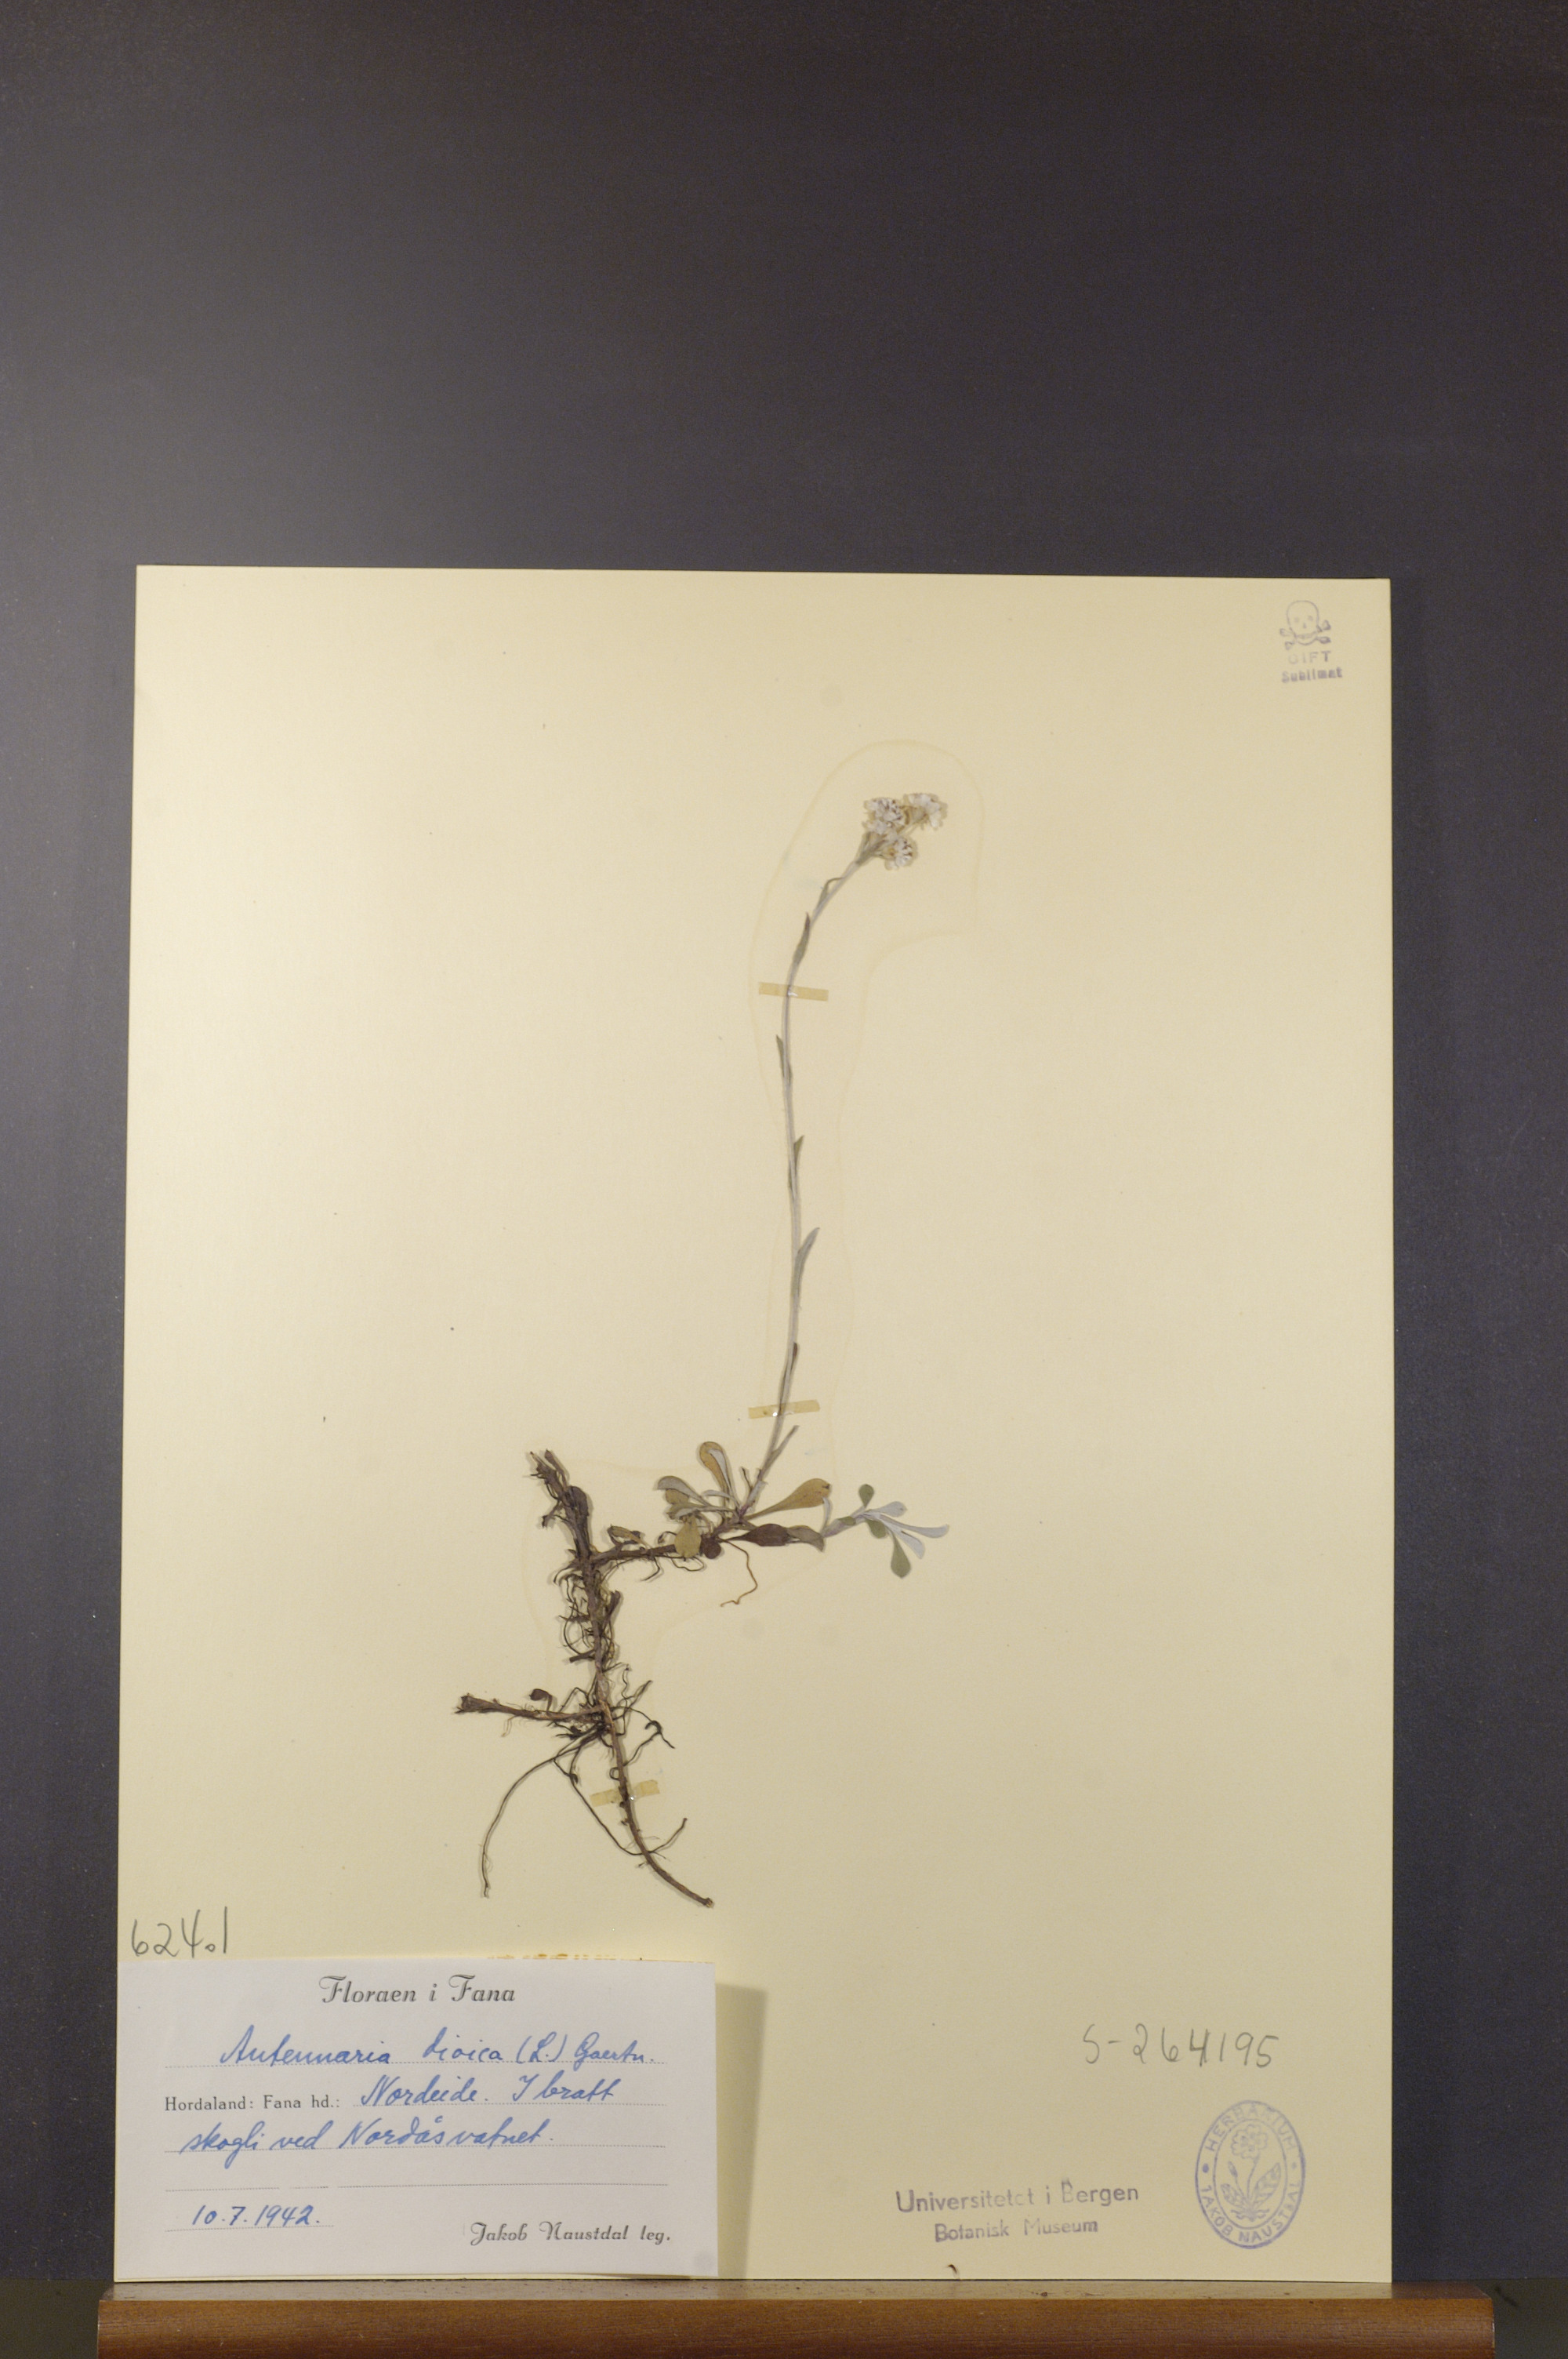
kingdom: Plantae
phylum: Tracheophyta
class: Magnoliopsida
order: Asterales
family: Asteraceae
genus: Antennaria
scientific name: Antennaria dioica
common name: Mountain everlasting
